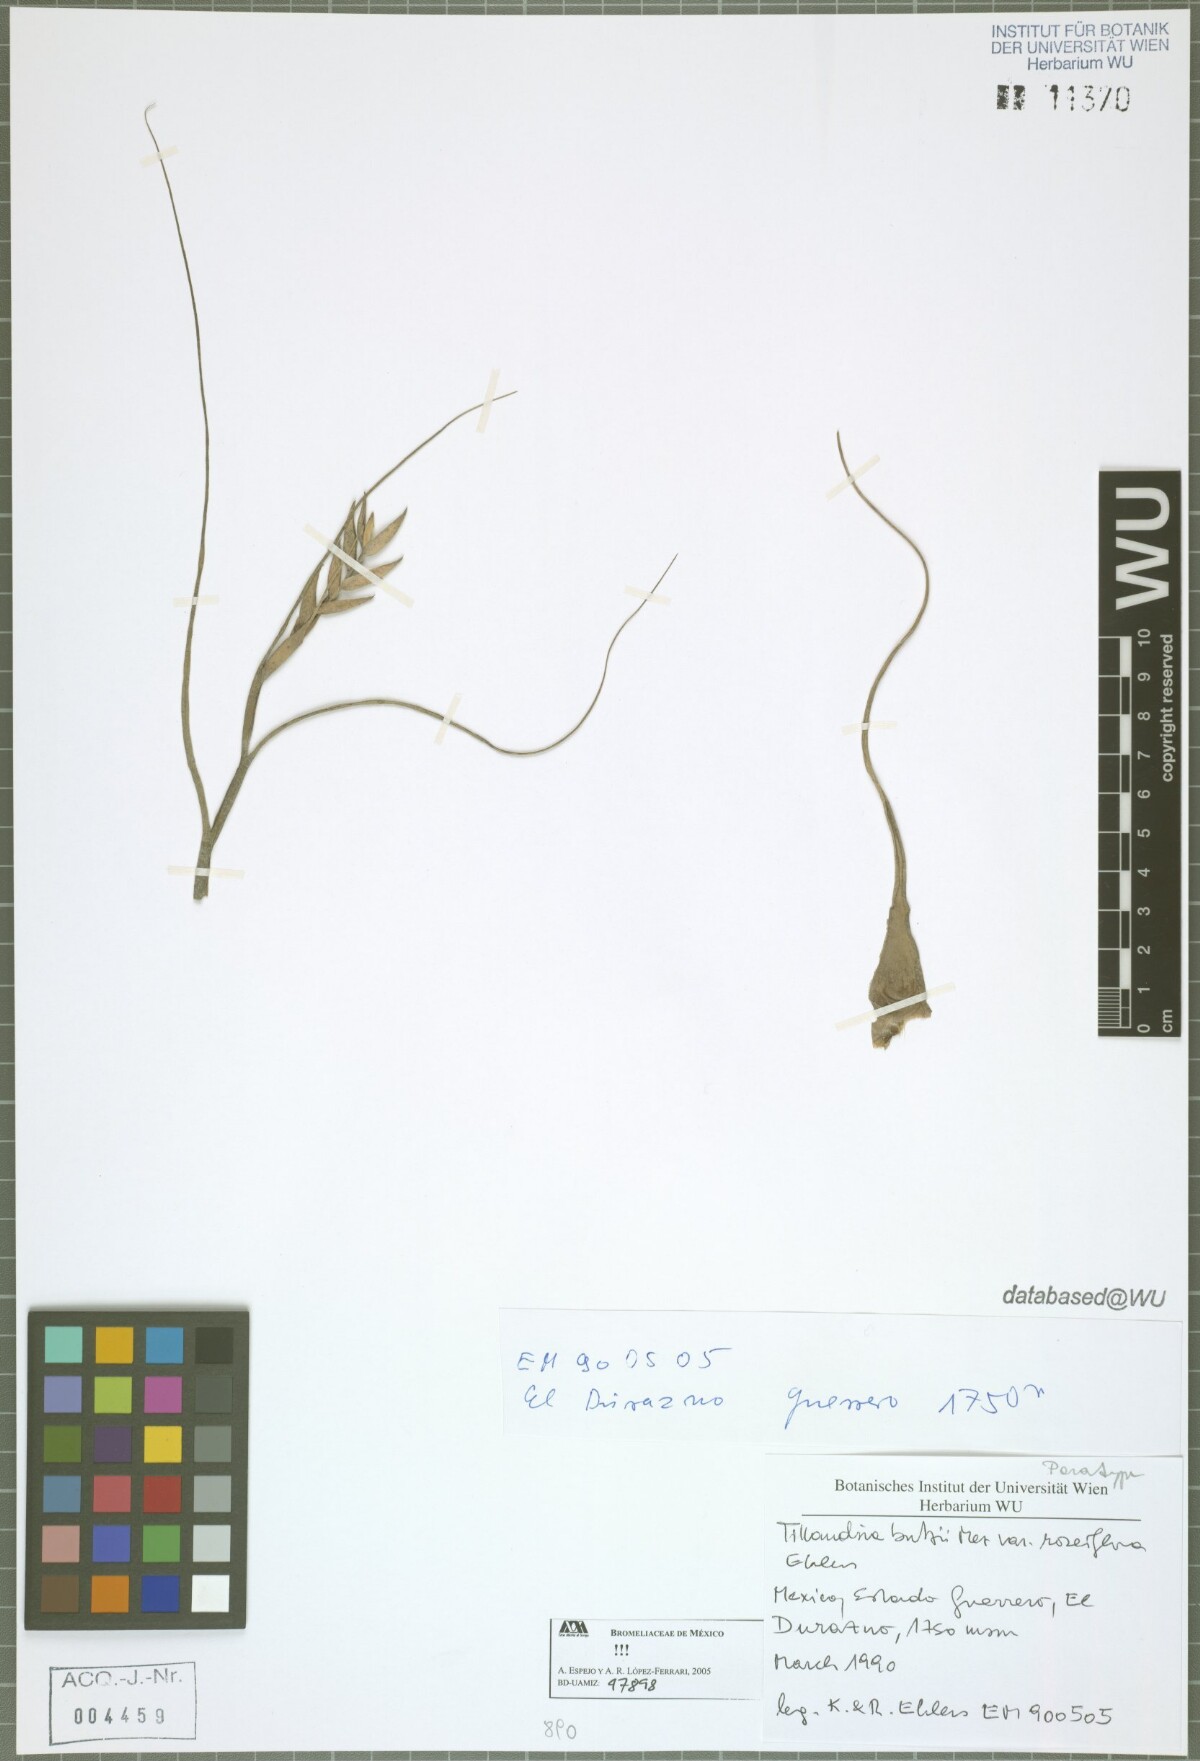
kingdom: Plantae
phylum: Tracheophyta
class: Liliopsida
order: Poales
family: Bromeliaceae
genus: Tillandsia
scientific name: Tillandsia butzii
